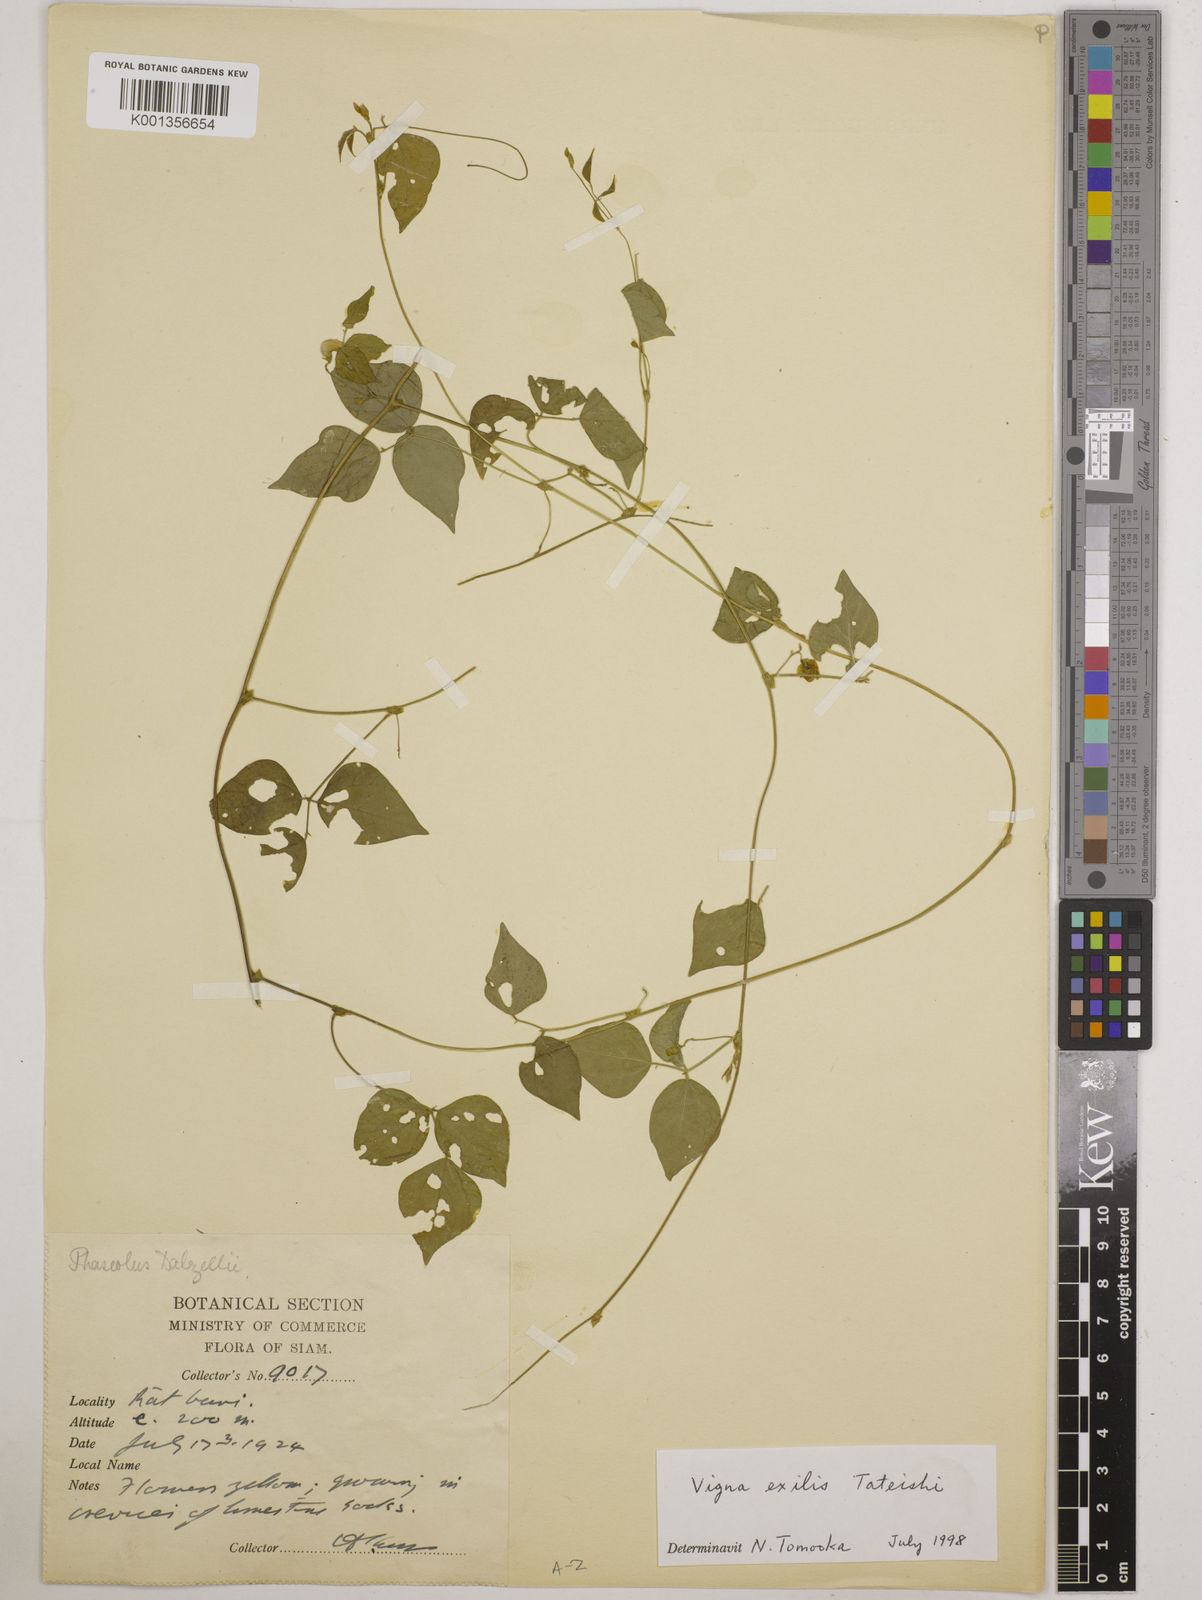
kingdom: Plantae
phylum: Tracheophyta
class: Magnoliopsida
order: Fabales
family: Fabaceae
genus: Vigna
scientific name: Vigna
